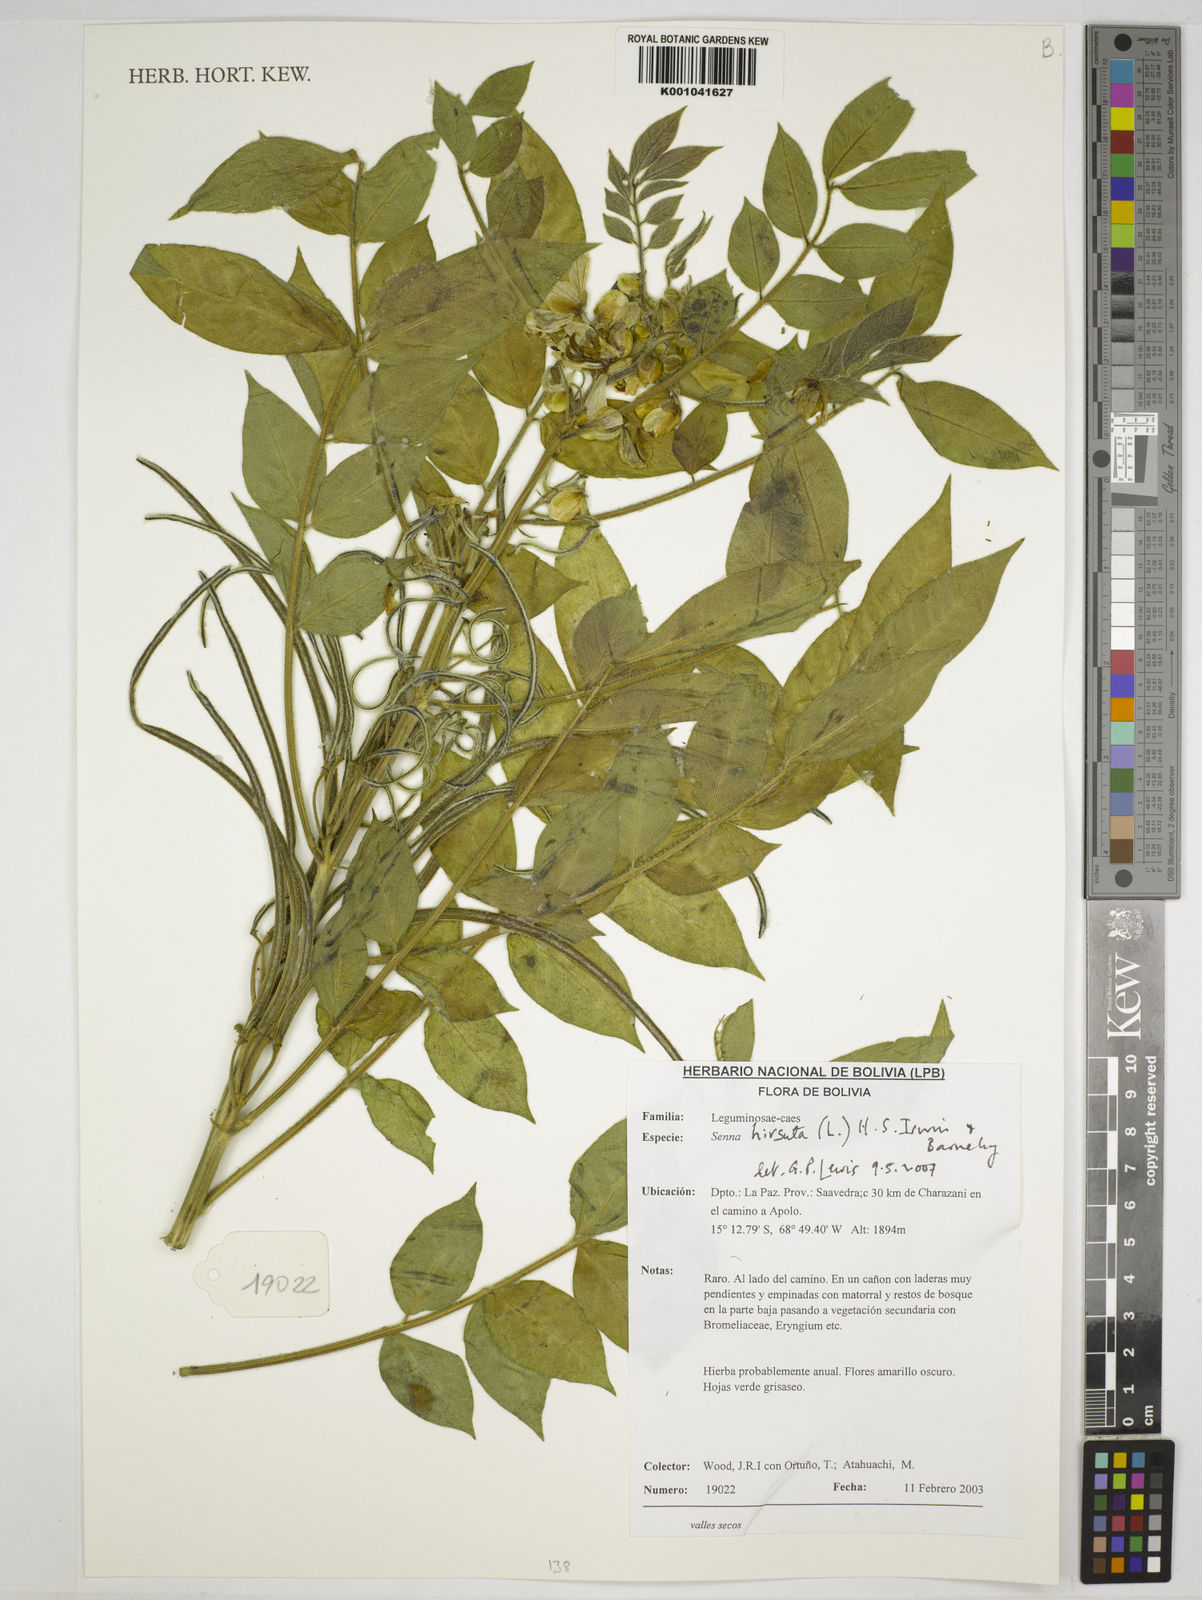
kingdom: Plantae
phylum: Tracheophyta
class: Magnoliopsida
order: Fabales
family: Fabaceae
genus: Senna
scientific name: Senna hirsuta
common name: Woolly senna
